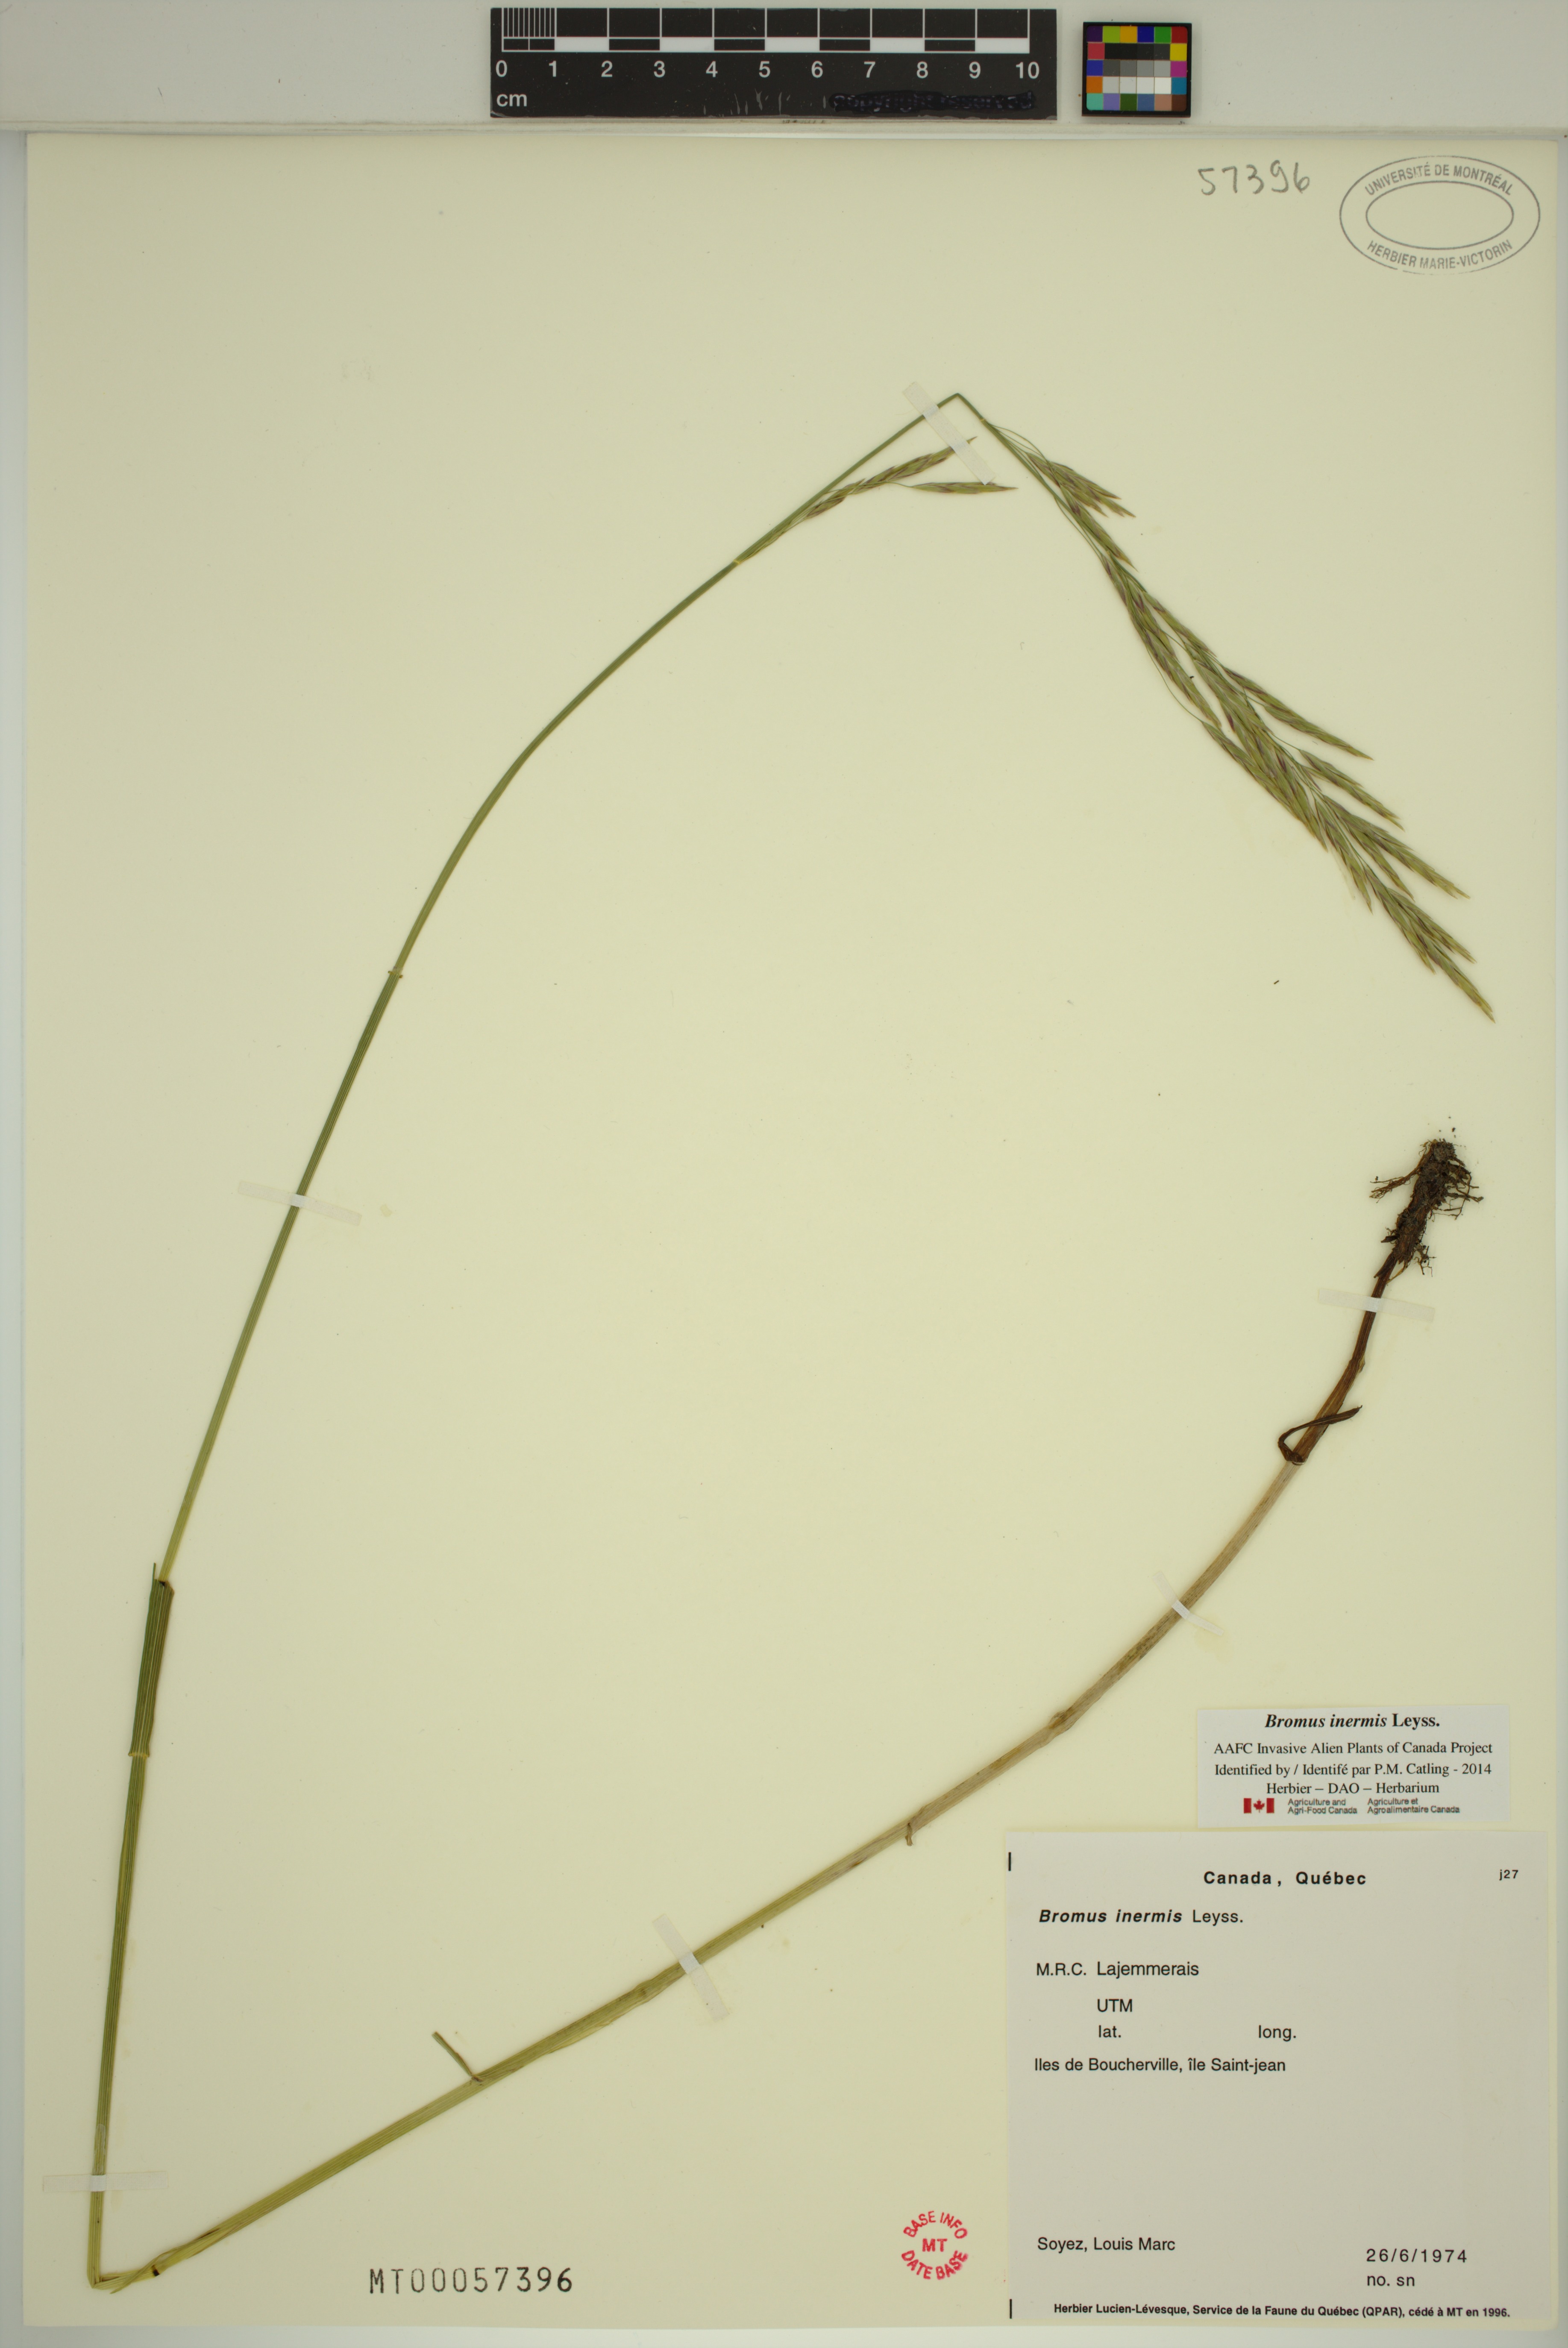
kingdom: Plantae
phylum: Tracheophyta
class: Liliopsida
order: Poales
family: Poaceae
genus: Bromus
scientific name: Bromus inermis
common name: Smooth brome
